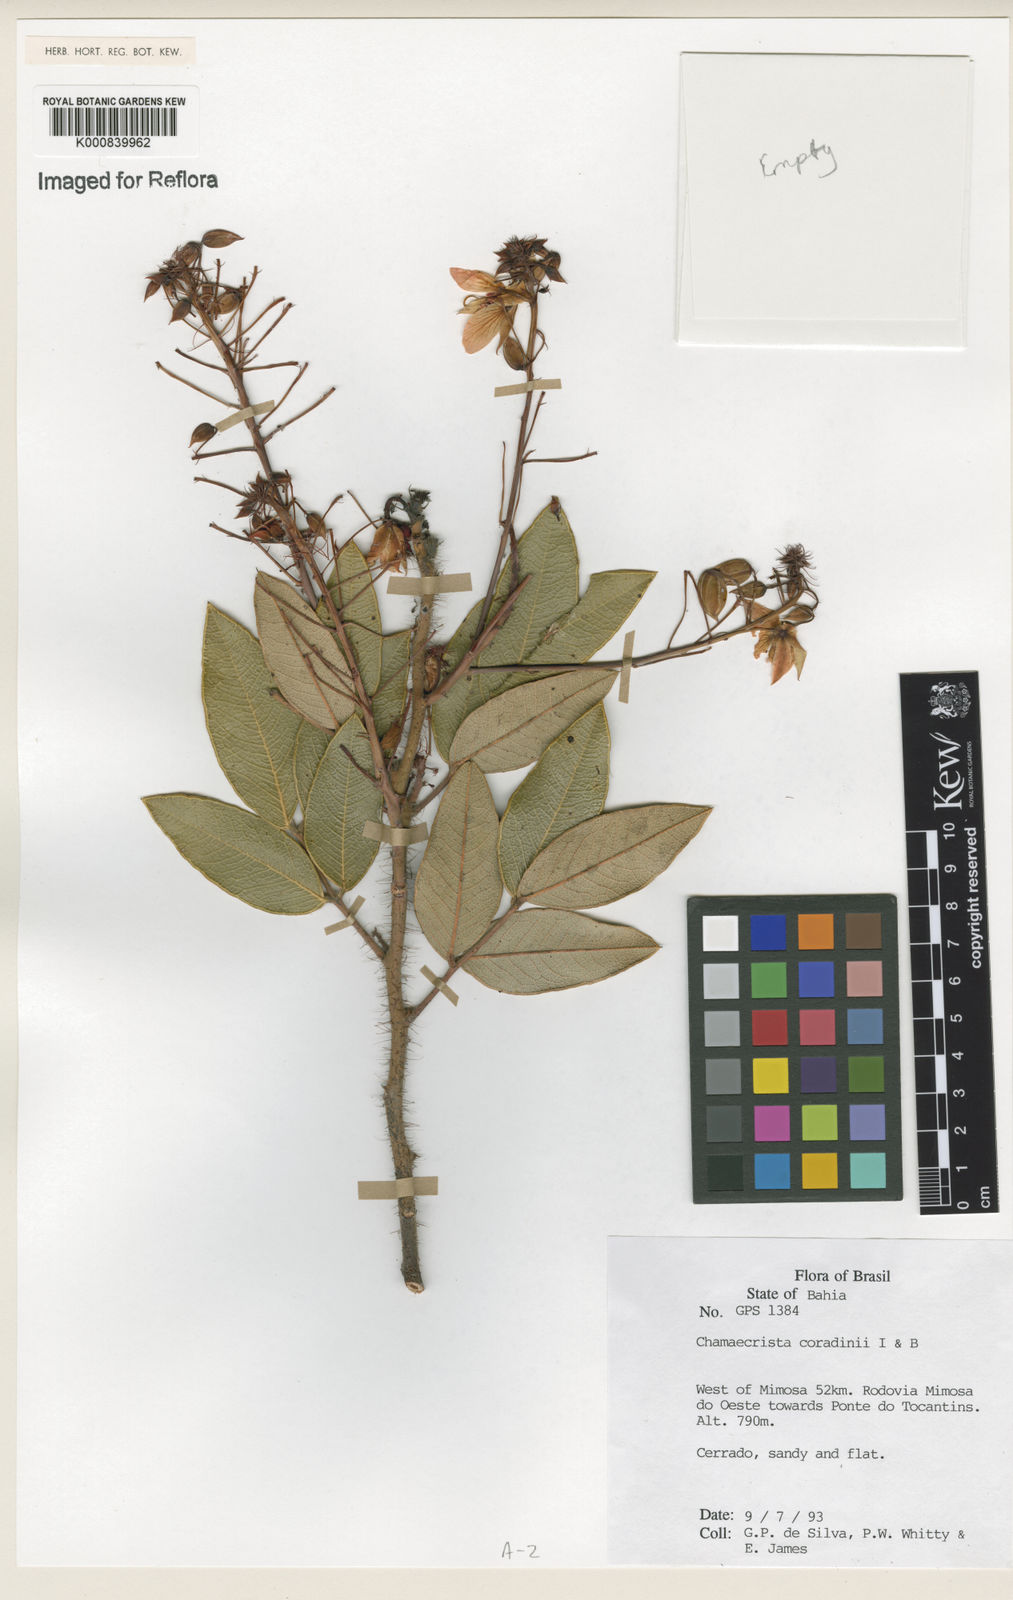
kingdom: Plantae
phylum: Tracheophyta
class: Magnoliopsida
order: Fabales
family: Fabaceae
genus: Chamaecrista
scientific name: Chamaecrista coradinii
